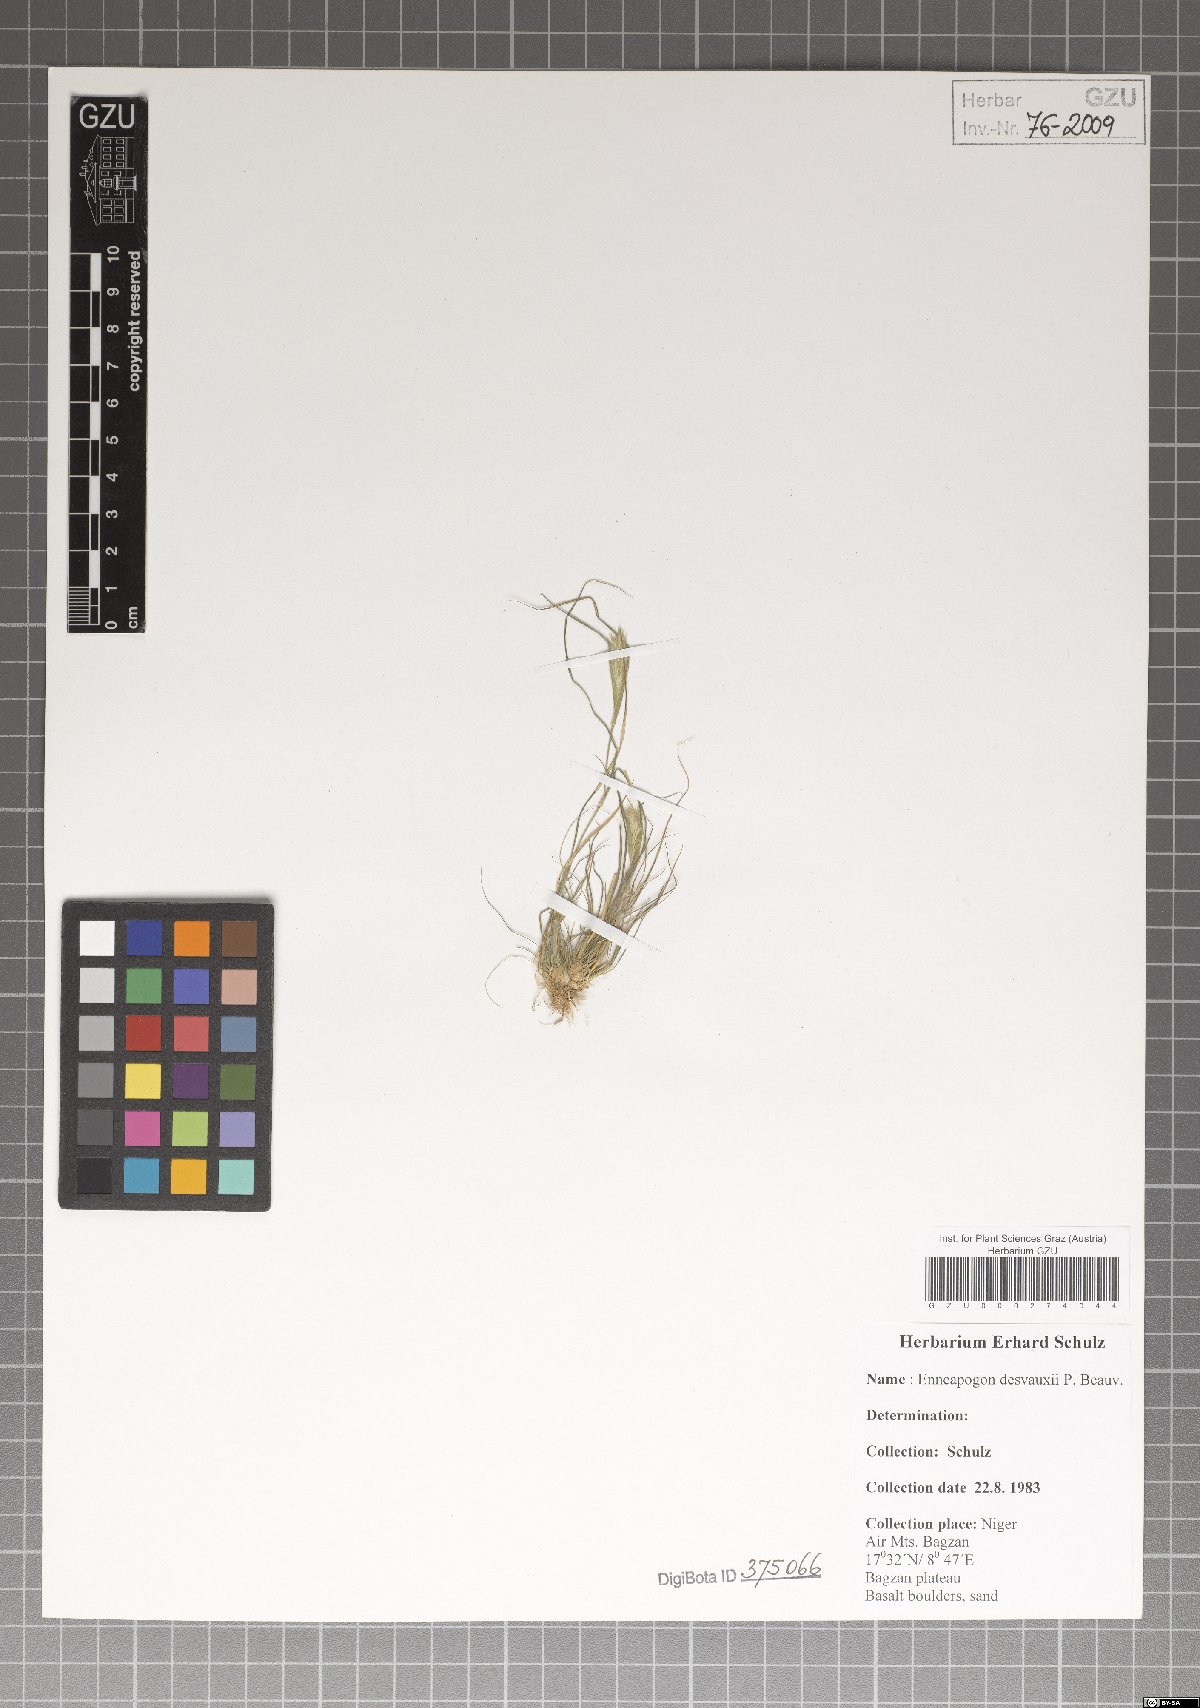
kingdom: Plantae
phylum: Tracheophyta
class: Liliopsida
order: Poales
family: Poaceae
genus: Enneapogon
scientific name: Enneapogon desvauxii
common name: Feather pappus grass
